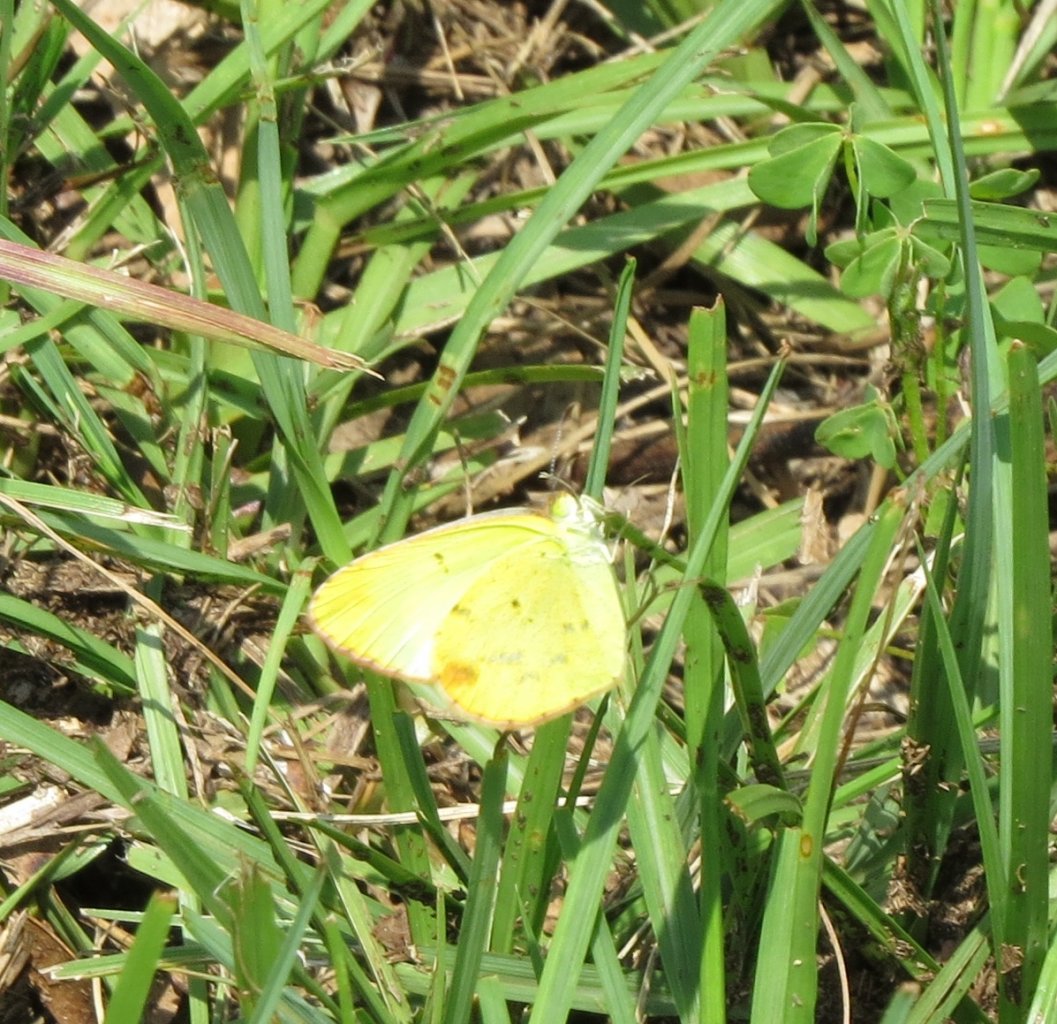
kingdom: Animalia
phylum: Arthropoda
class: Insecta
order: Lepidoptera
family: Pieridae
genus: Pyrisitia
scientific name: Pyrisitia lisa
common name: Little Yellow
